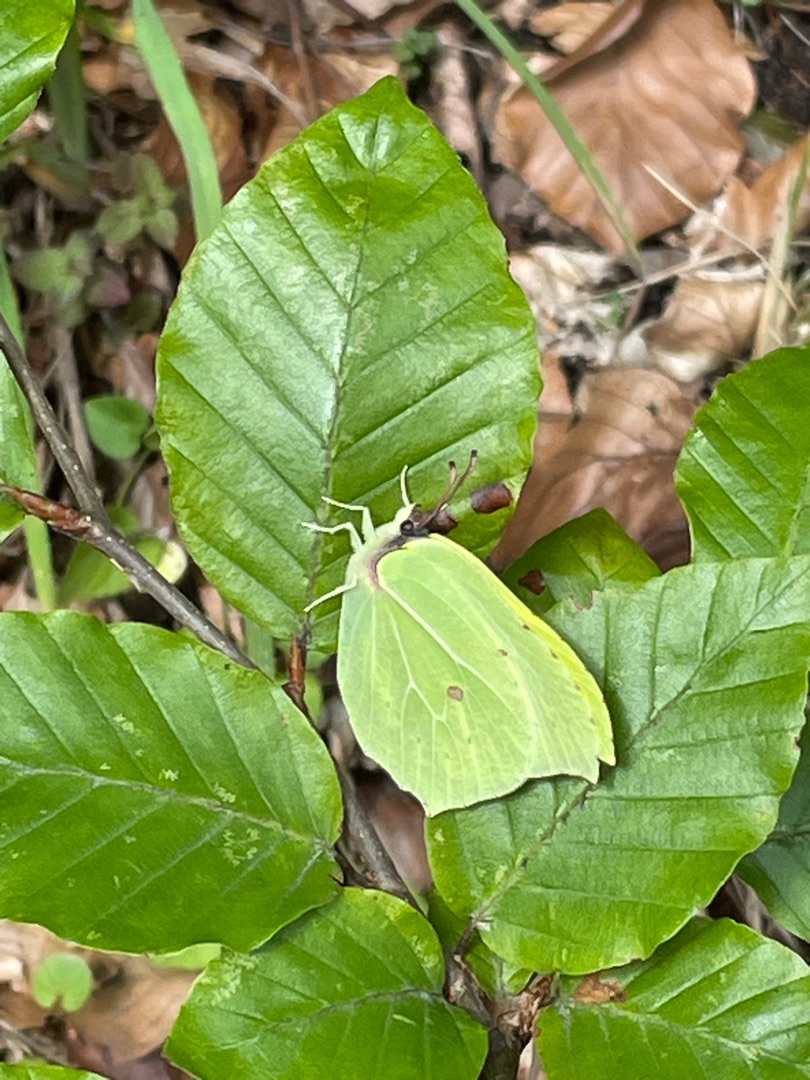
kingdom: Animalia
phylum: Arthropoda
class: Insecta
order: Lepidoptera
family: Pieridae
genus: Gonepteryx
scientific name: Gonepteryx rhamni
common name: Citronsommerfugl
